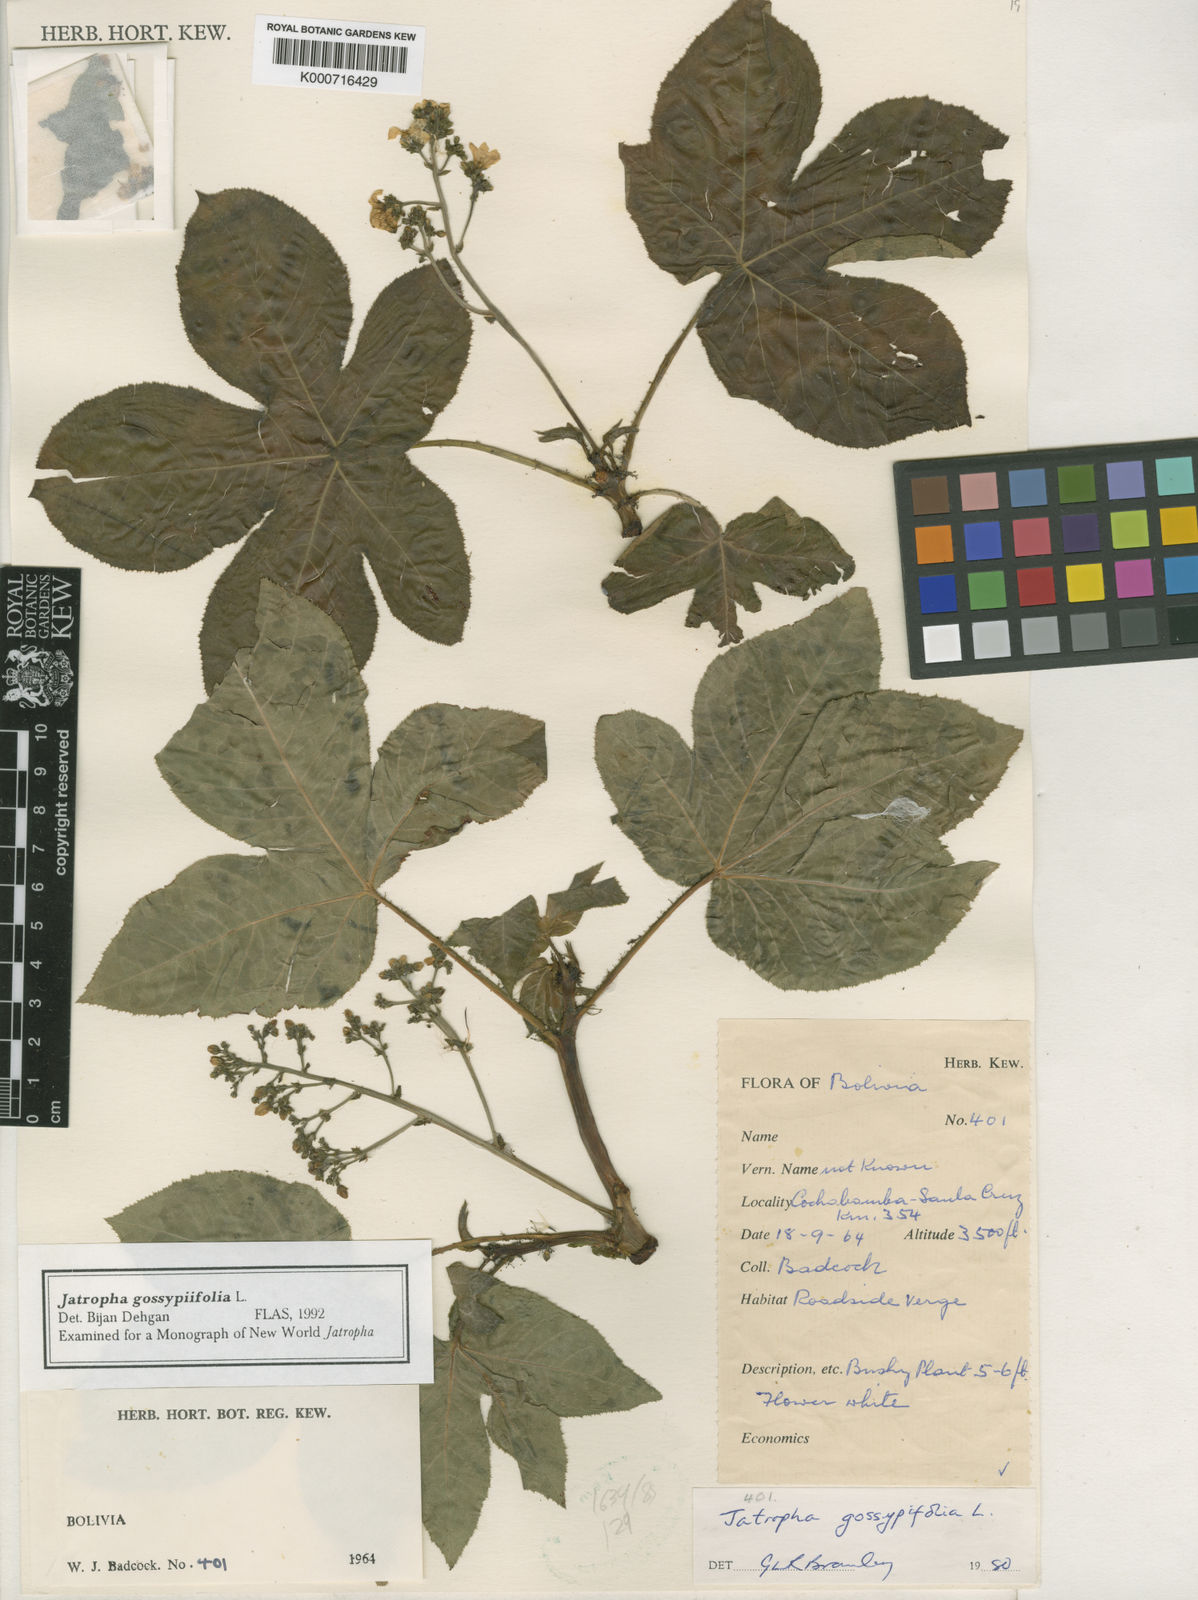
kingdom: Plantae
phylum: Tracheophyta
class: Magnoliopsida
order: Malpighiales
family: Euphorbiaceae
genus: Jatropha
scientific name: Jatropha gossypiifolia
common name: Bellyache bush
